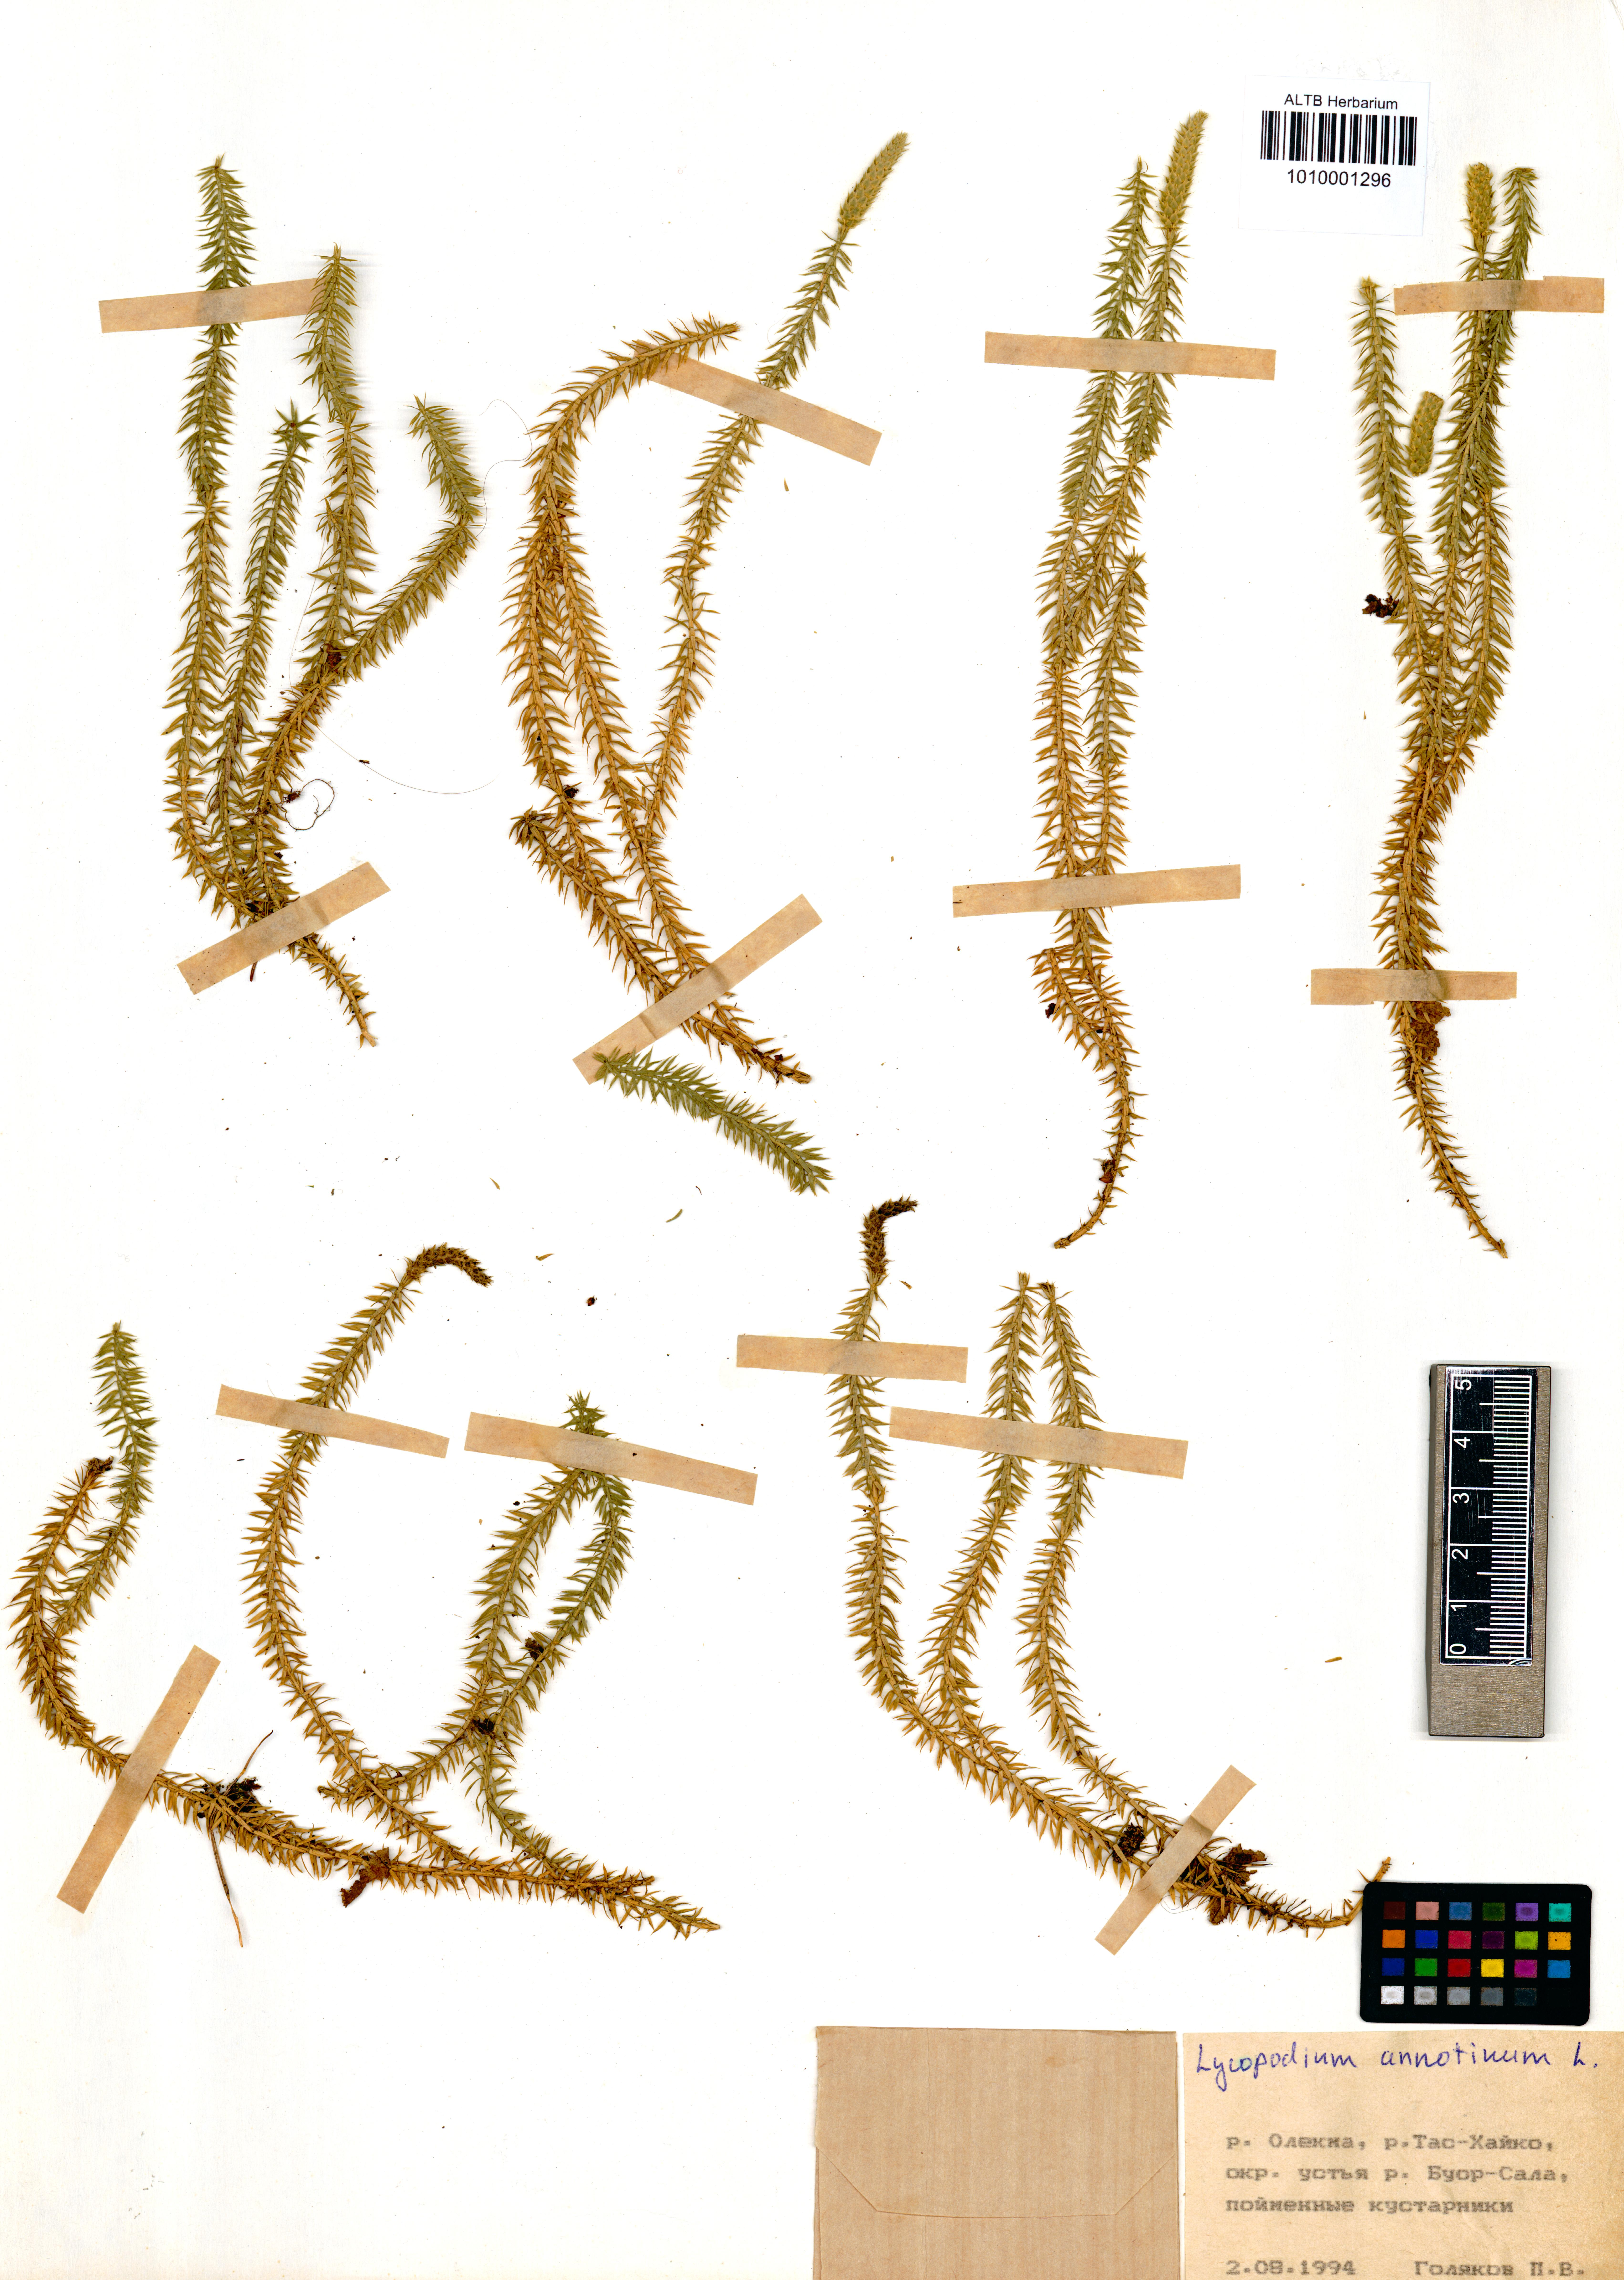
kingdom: Plantae
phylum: Tracheophyta
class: Lycopodiopsida
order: Lycopodiales
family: Lycopodiaceae
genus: Spinulum
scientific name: Spinulum annotinum
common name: Interrupted club-moss
